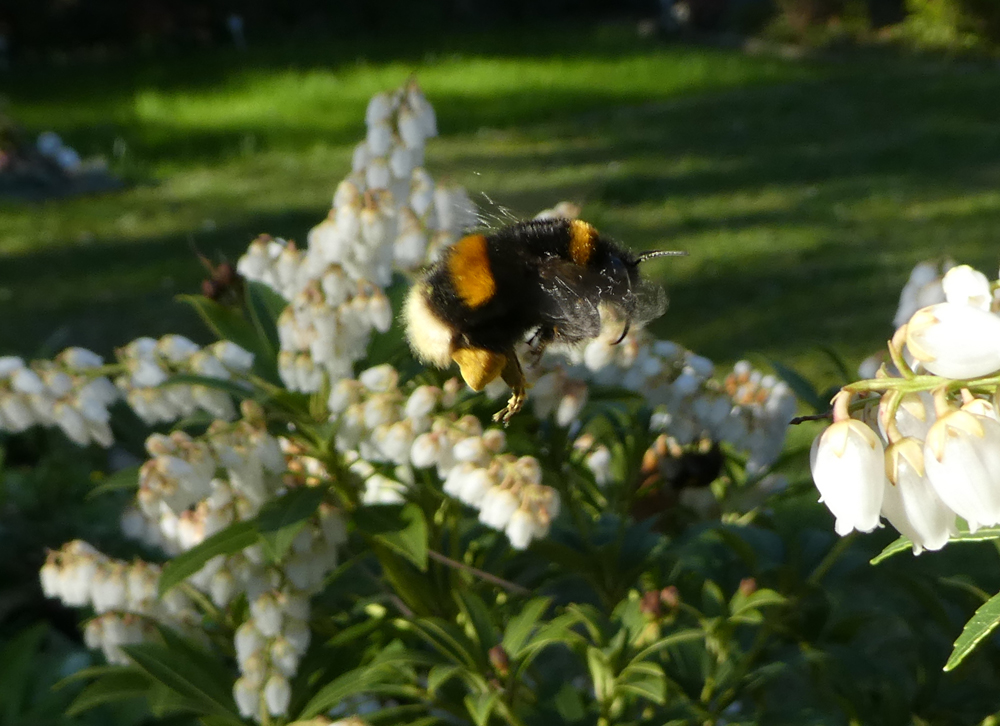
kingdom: Animalia
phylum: Arthropoda
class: Insecta
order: Hymenoptera
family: Apidae
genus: Bombus
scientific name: Bombus terrestris
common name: Buff-tailed bumblebee
